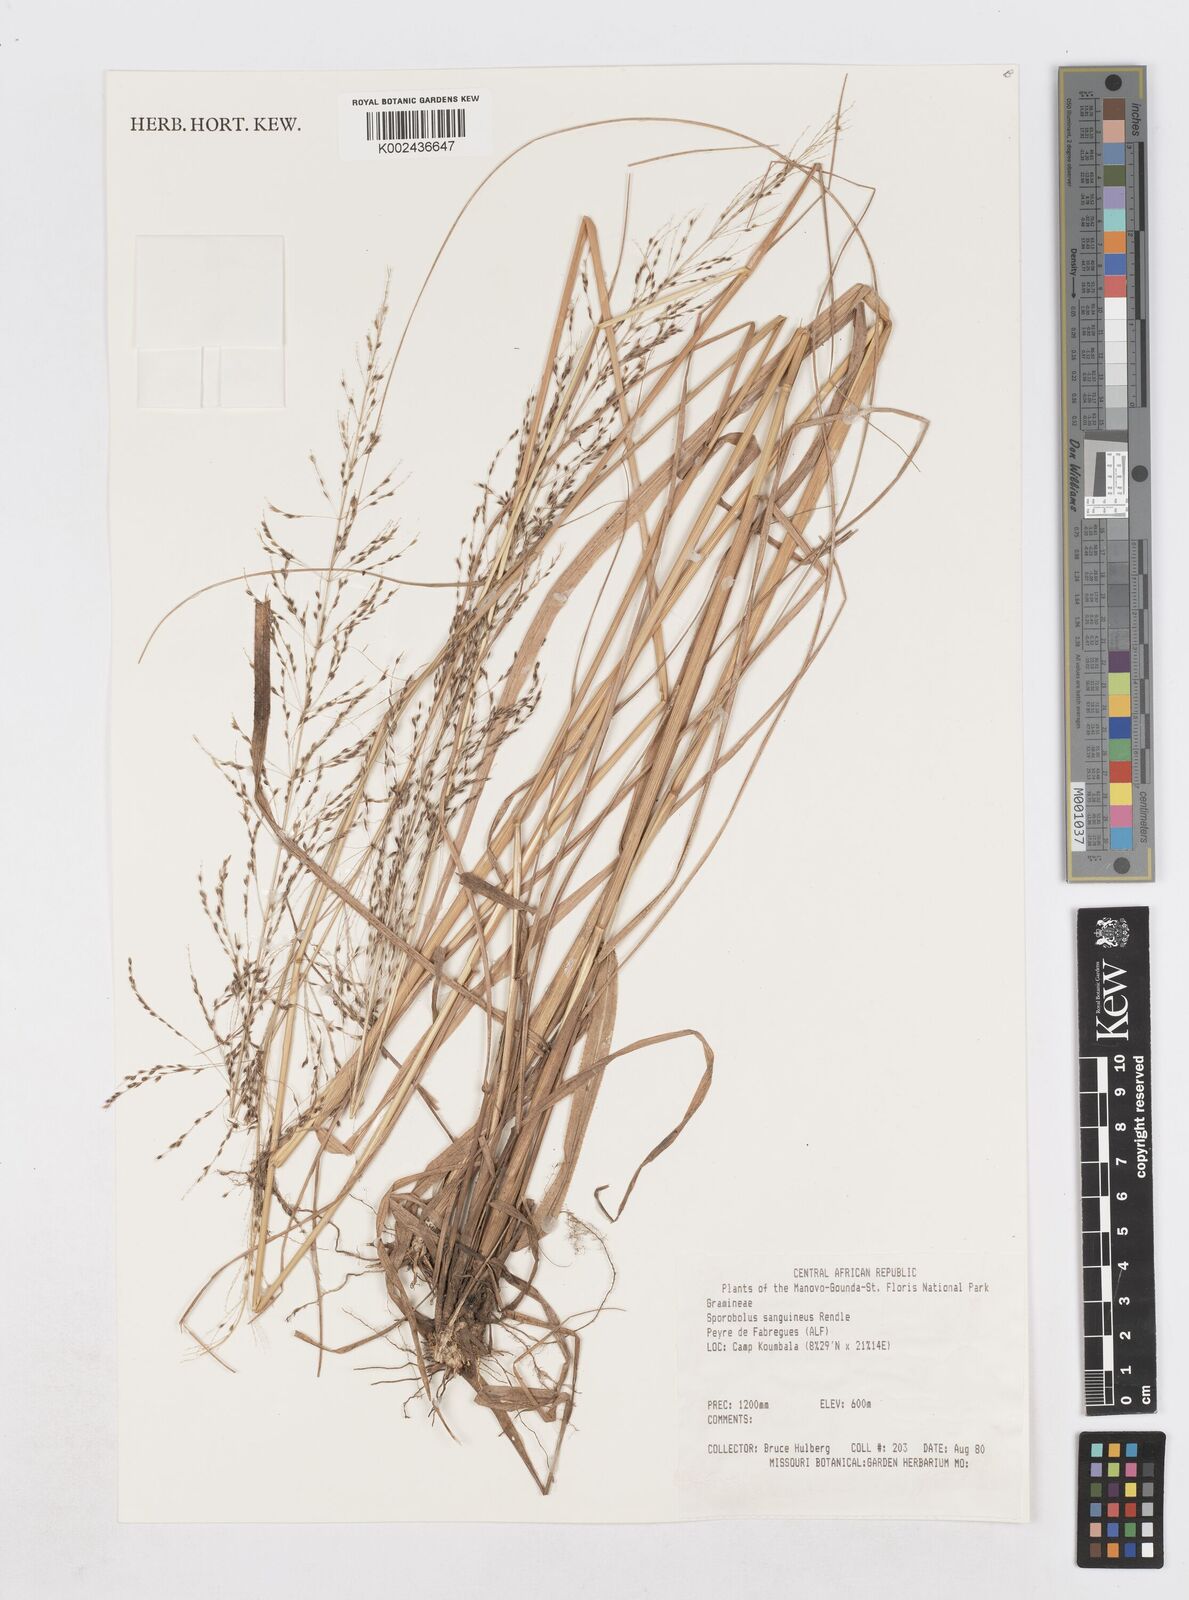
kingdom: Plantae
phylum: Tracheophyta
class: Liliopsida
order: Poales
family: Poaceae
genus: Sporobolus
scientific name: Sporobolus sanguineus
